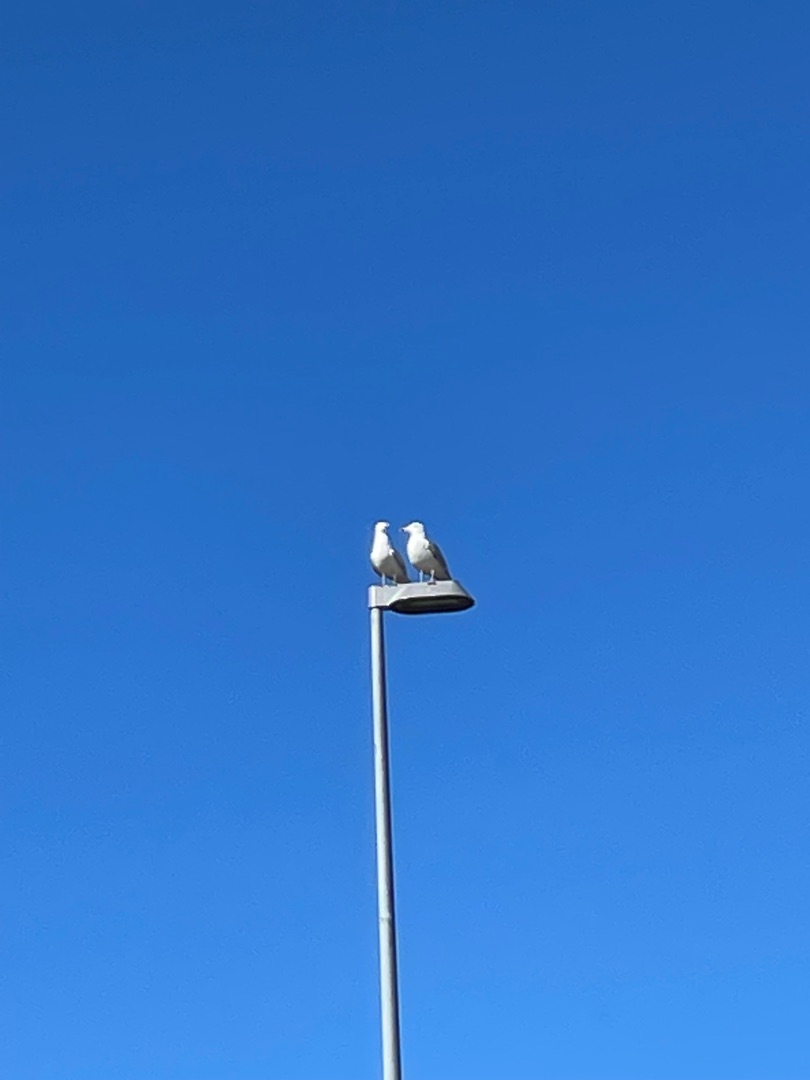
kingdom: Animalia
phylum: Chordata
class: Aves
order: Charadriiformes
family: Laridae
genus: Larus
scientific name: Larus argentatus
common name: Sølvmåge
